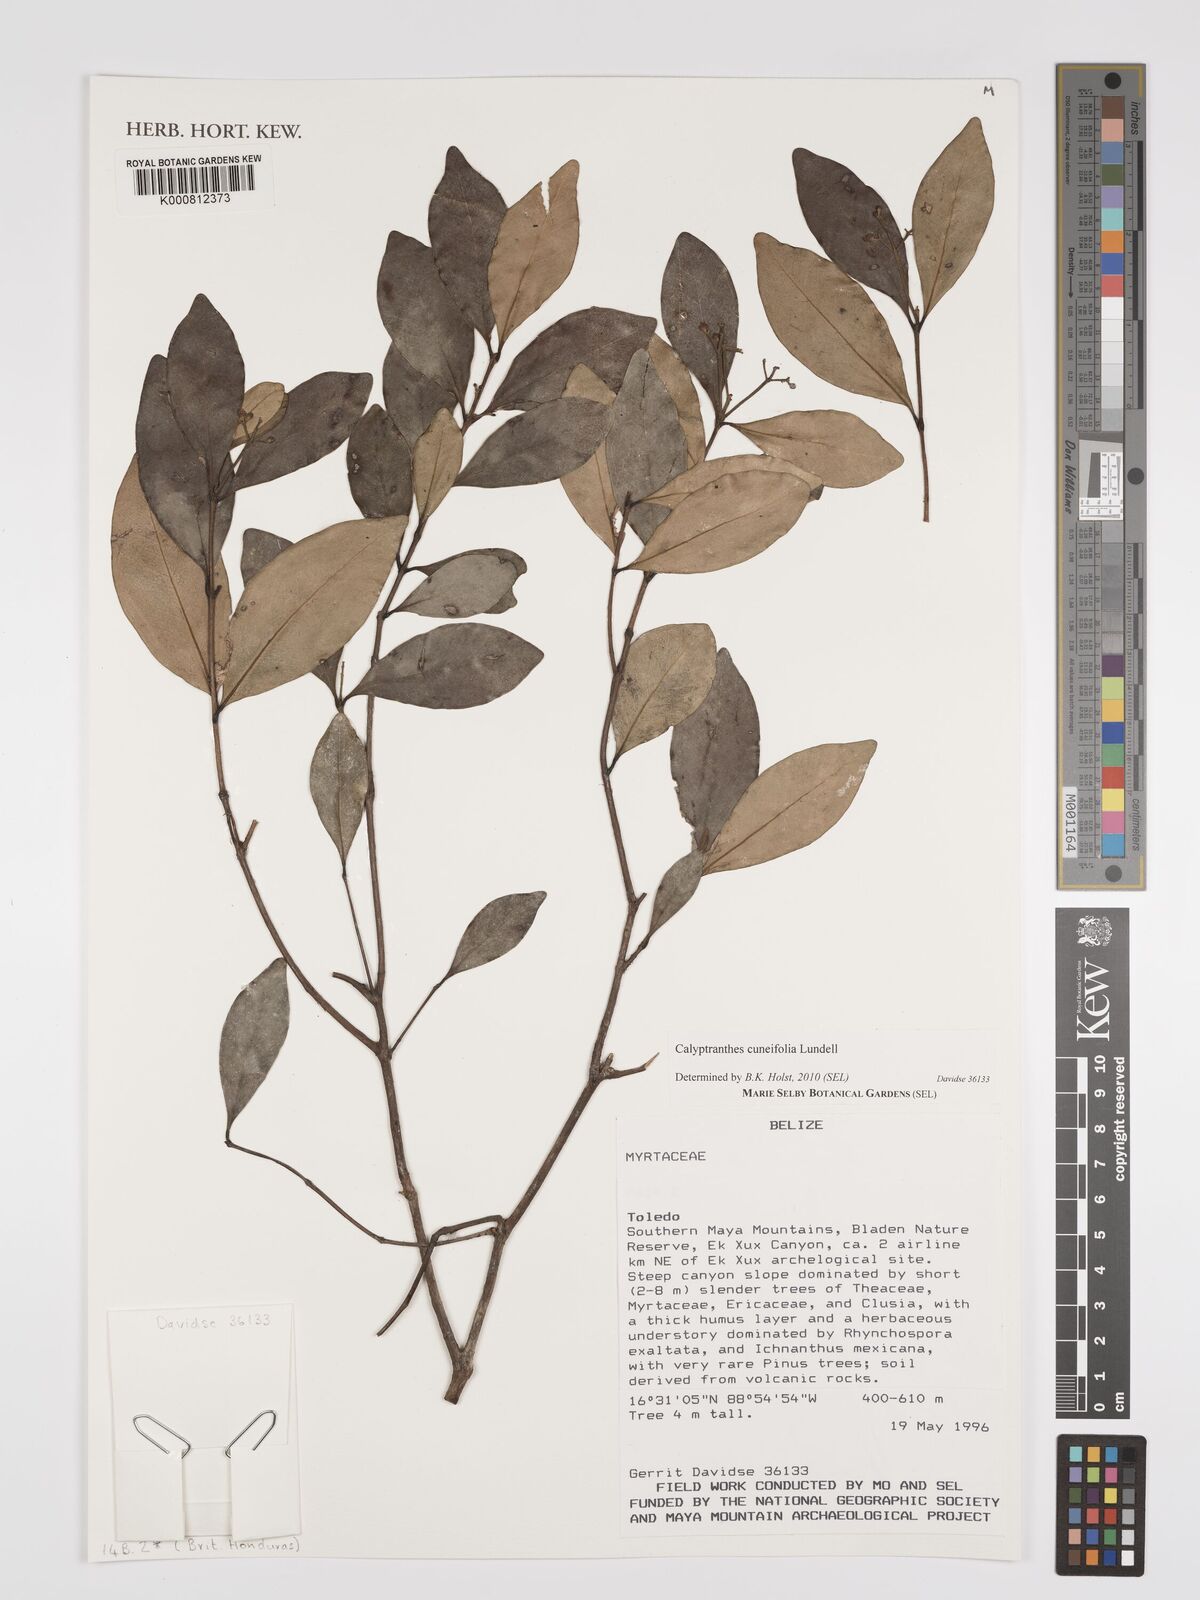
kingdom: Plantae
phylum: Tracheophyta
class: Magnoliopsida
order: Myrtales
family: Myrtaceae
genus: Myrcia
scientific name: Myrcia cuneifolia
